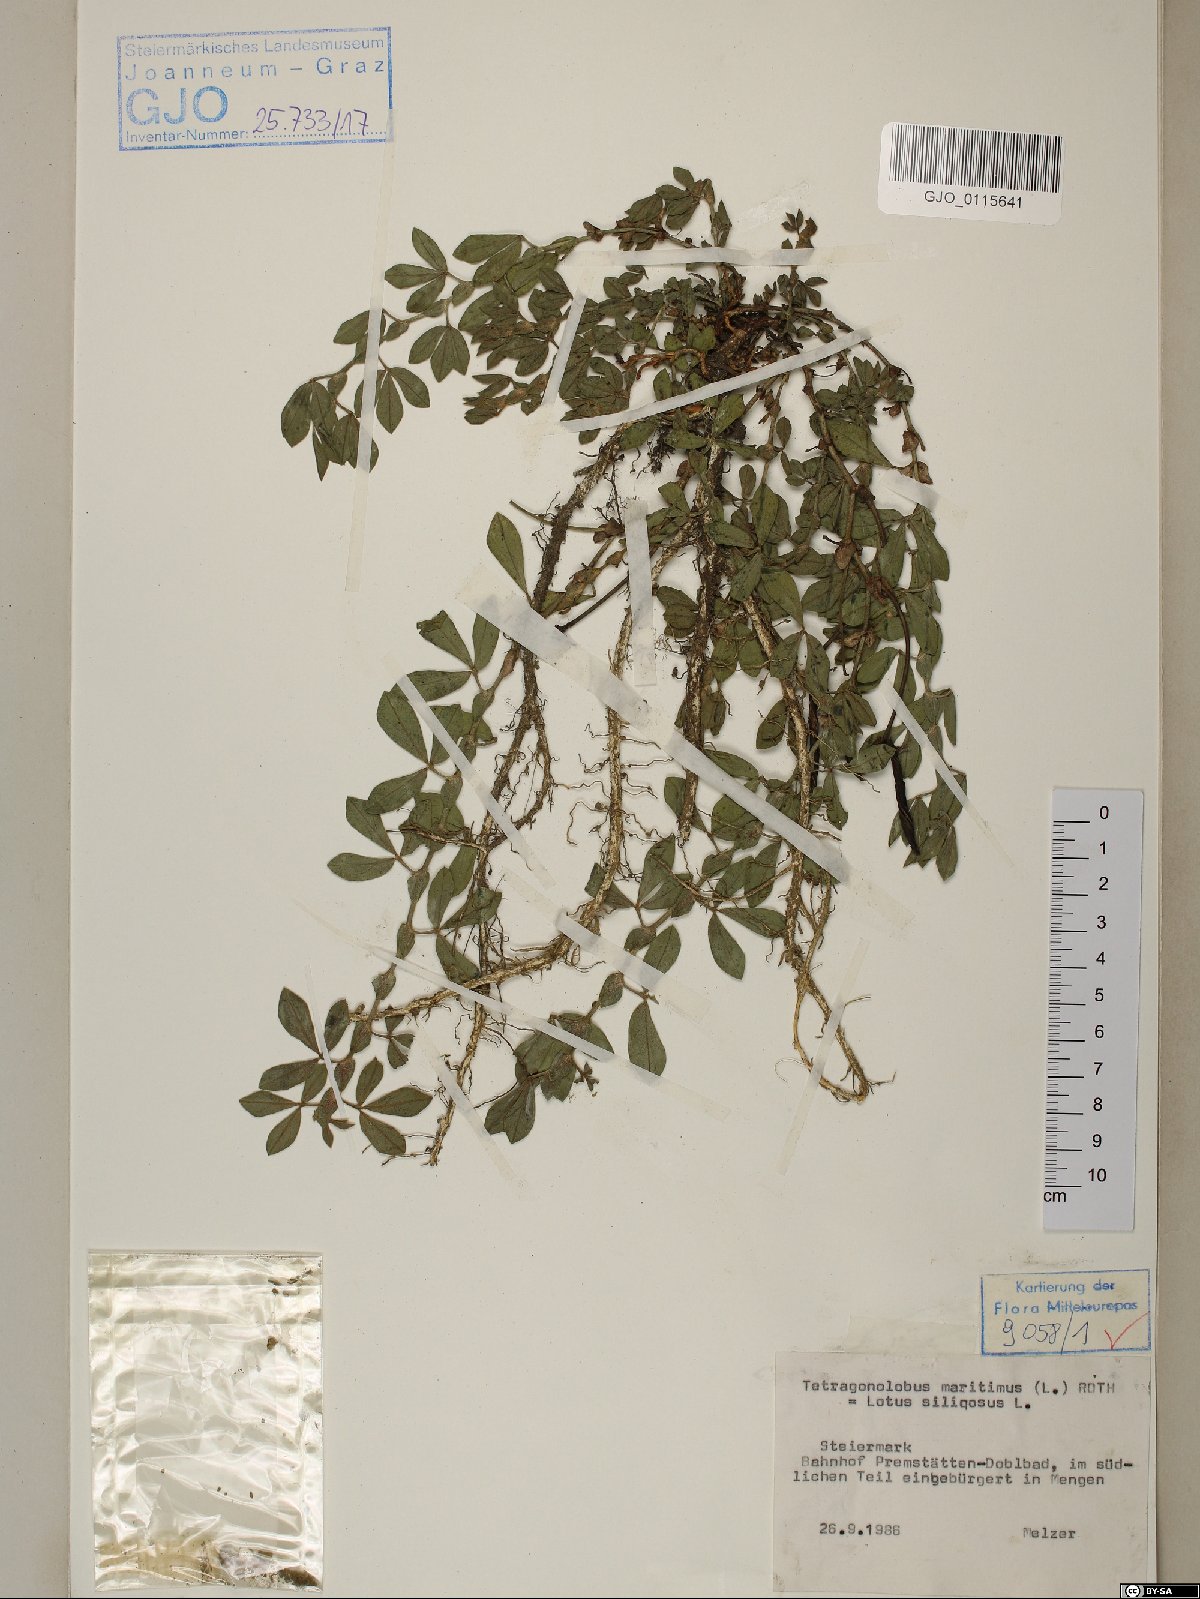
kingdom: Plantae
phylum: Tracheophyta
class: Magnoliopsida
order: Fabales
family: Fabaceae
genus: Lathyrus
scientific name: Lathyrus inconspicuus
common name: Inconspicuous pea
